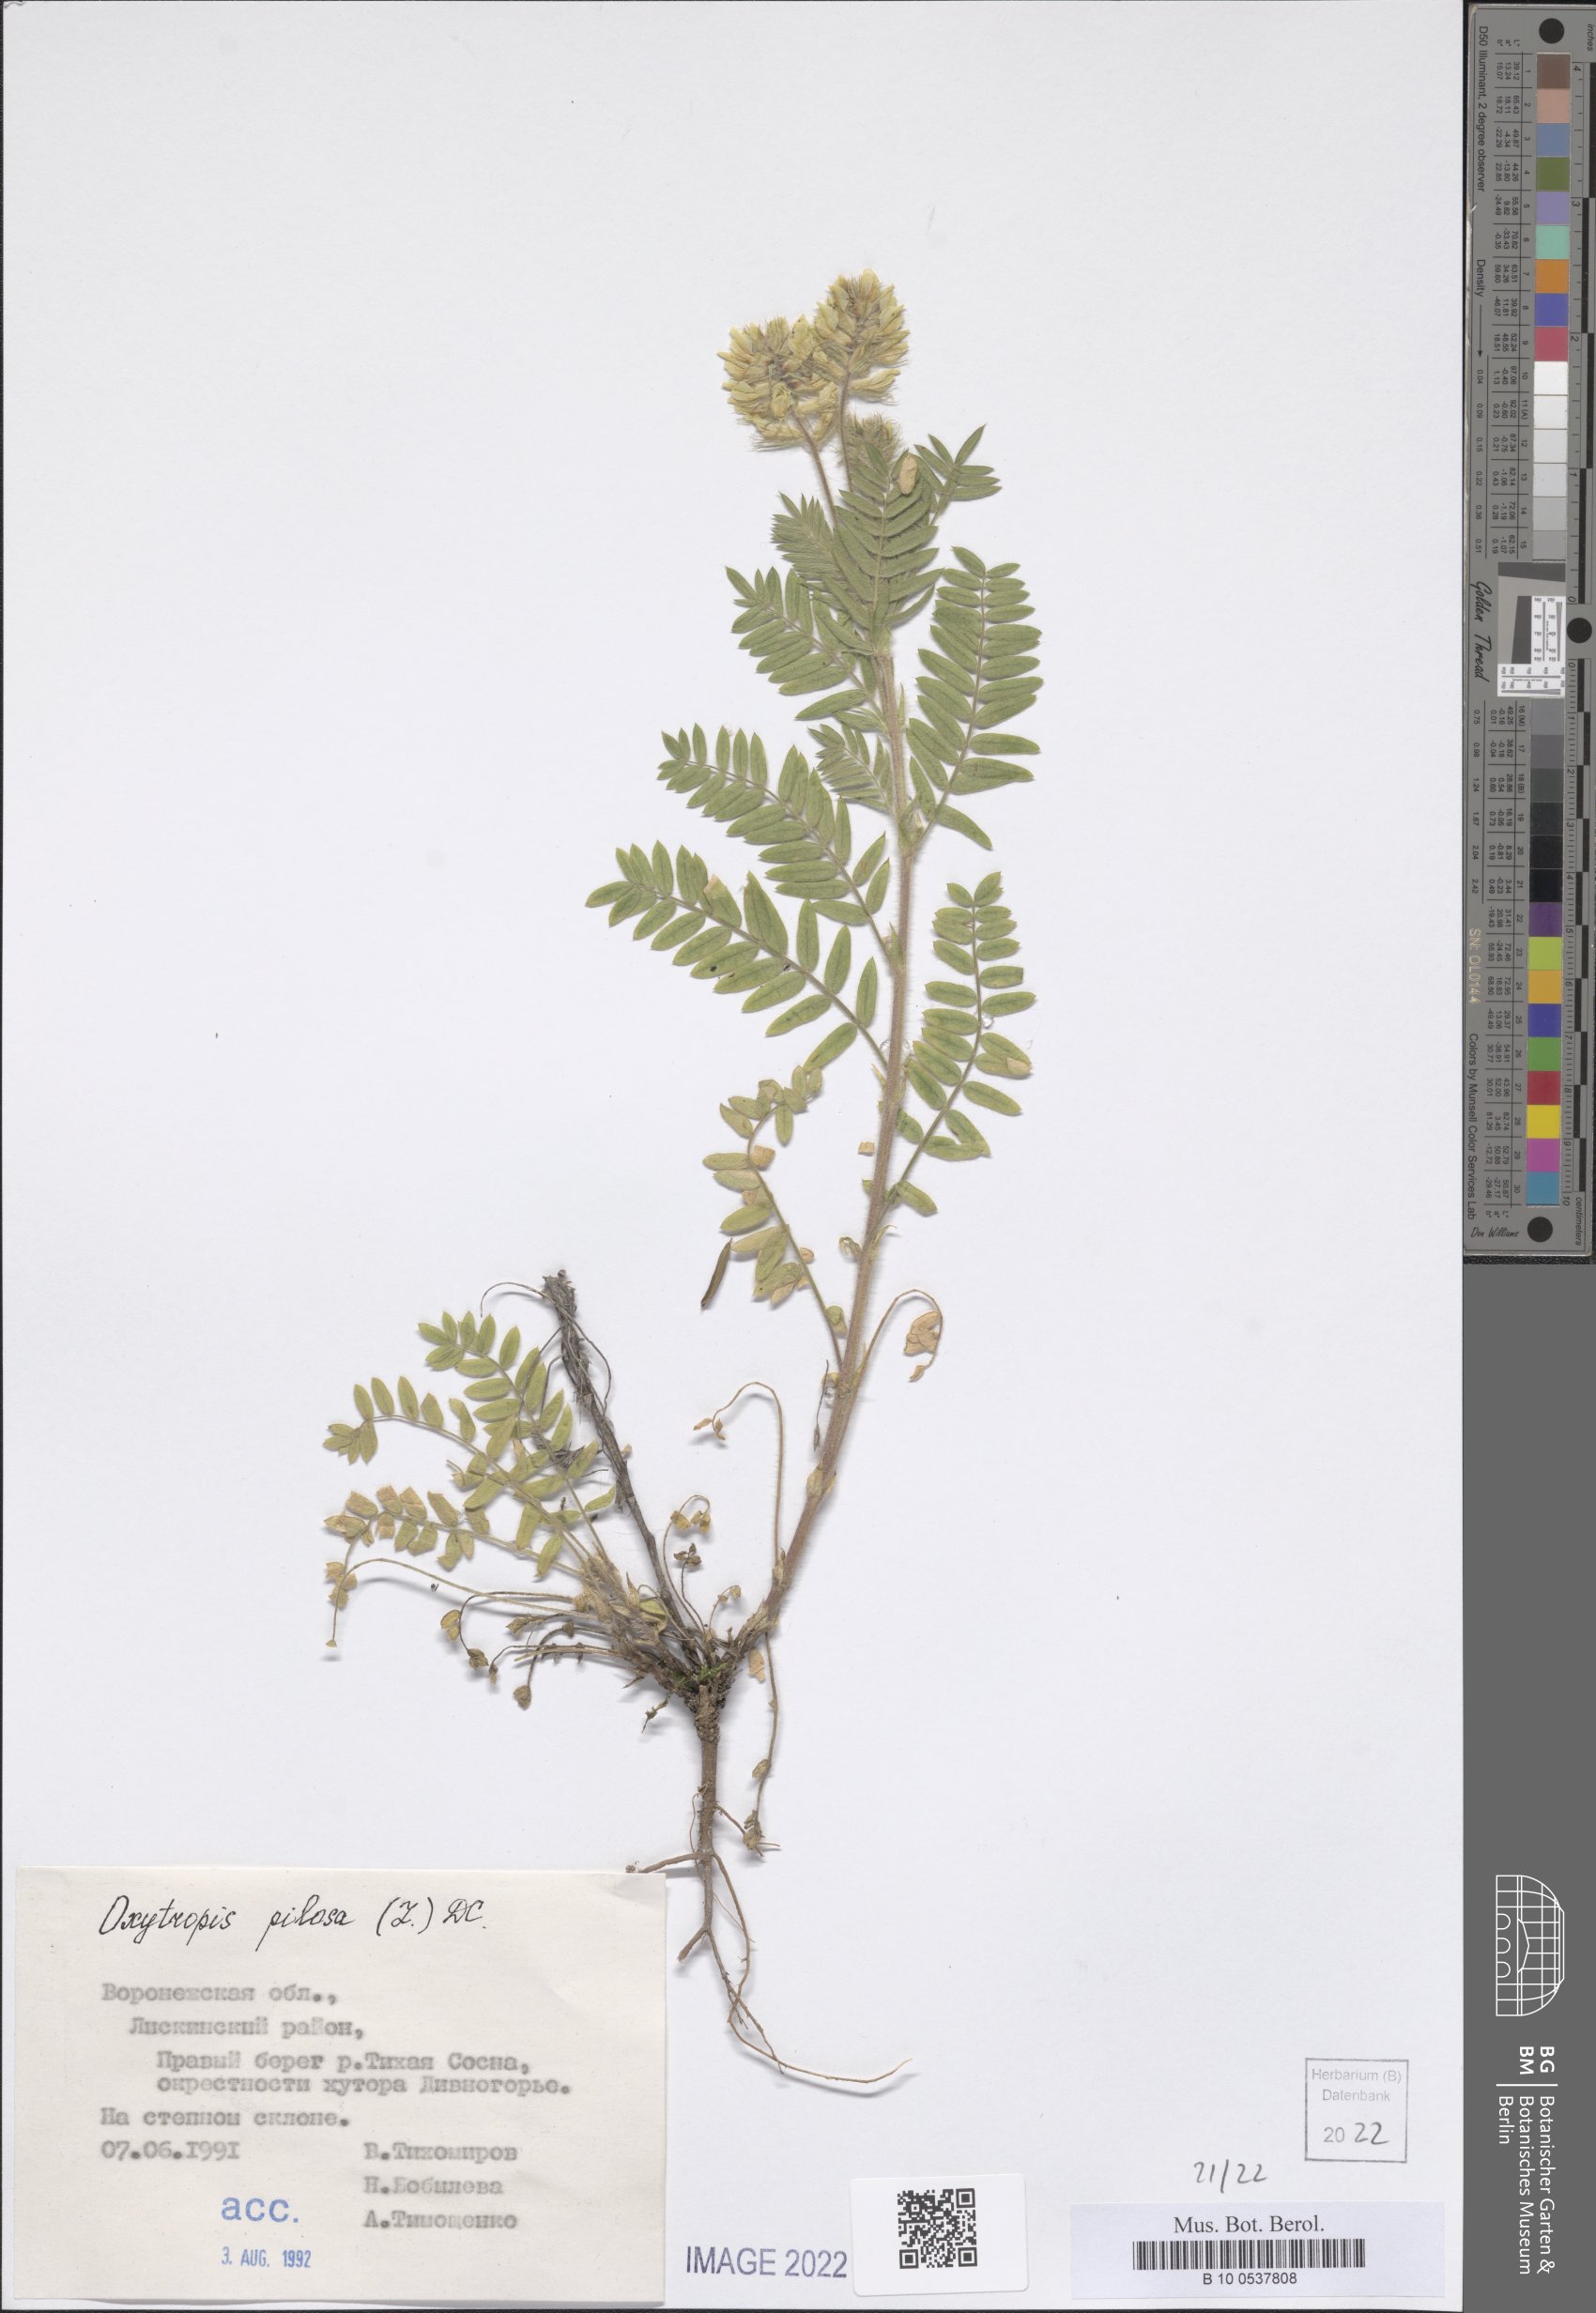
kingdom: Plantae
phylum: Tracheophyta
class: Magnoliopsida
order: Fabales
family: Fabaceae
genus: Oxytropis
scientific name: Oxytropis pilosa
